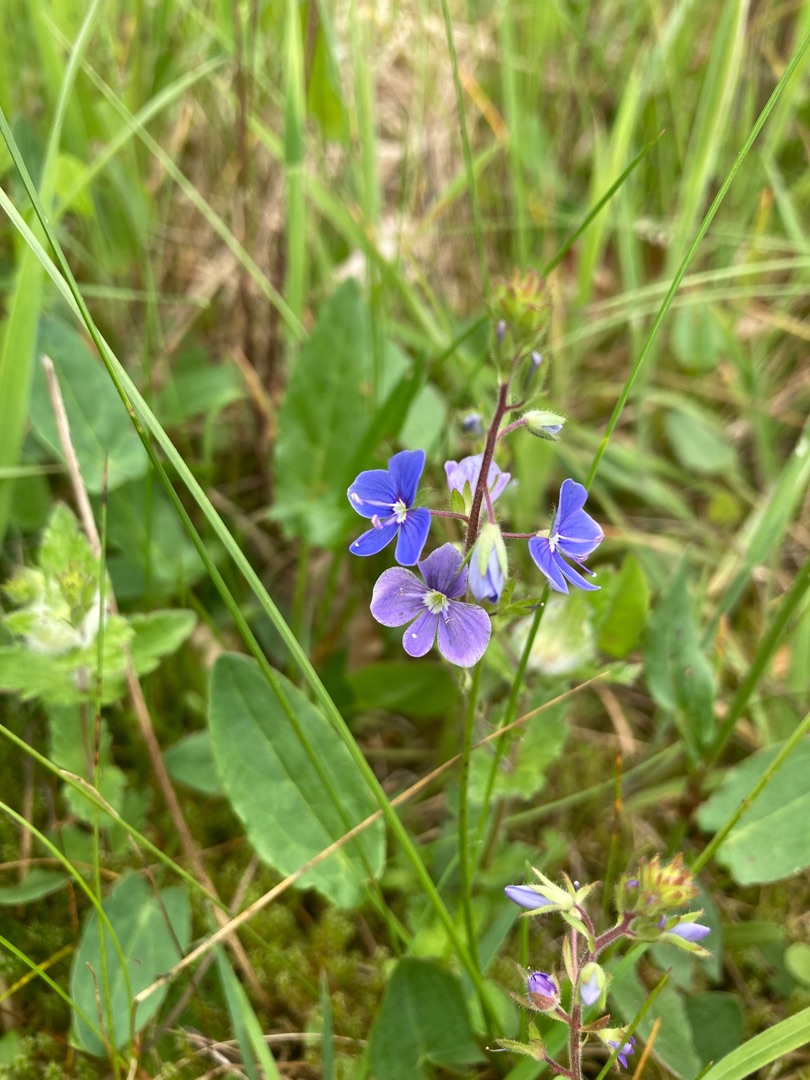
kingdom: Plantae
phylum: Tracheophyta
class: Magnoliopsida
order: Lamiales
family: Plantaginaceae
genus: Veronica
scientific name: Veronica chamaedrys
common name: Tveskægget ærenpris
